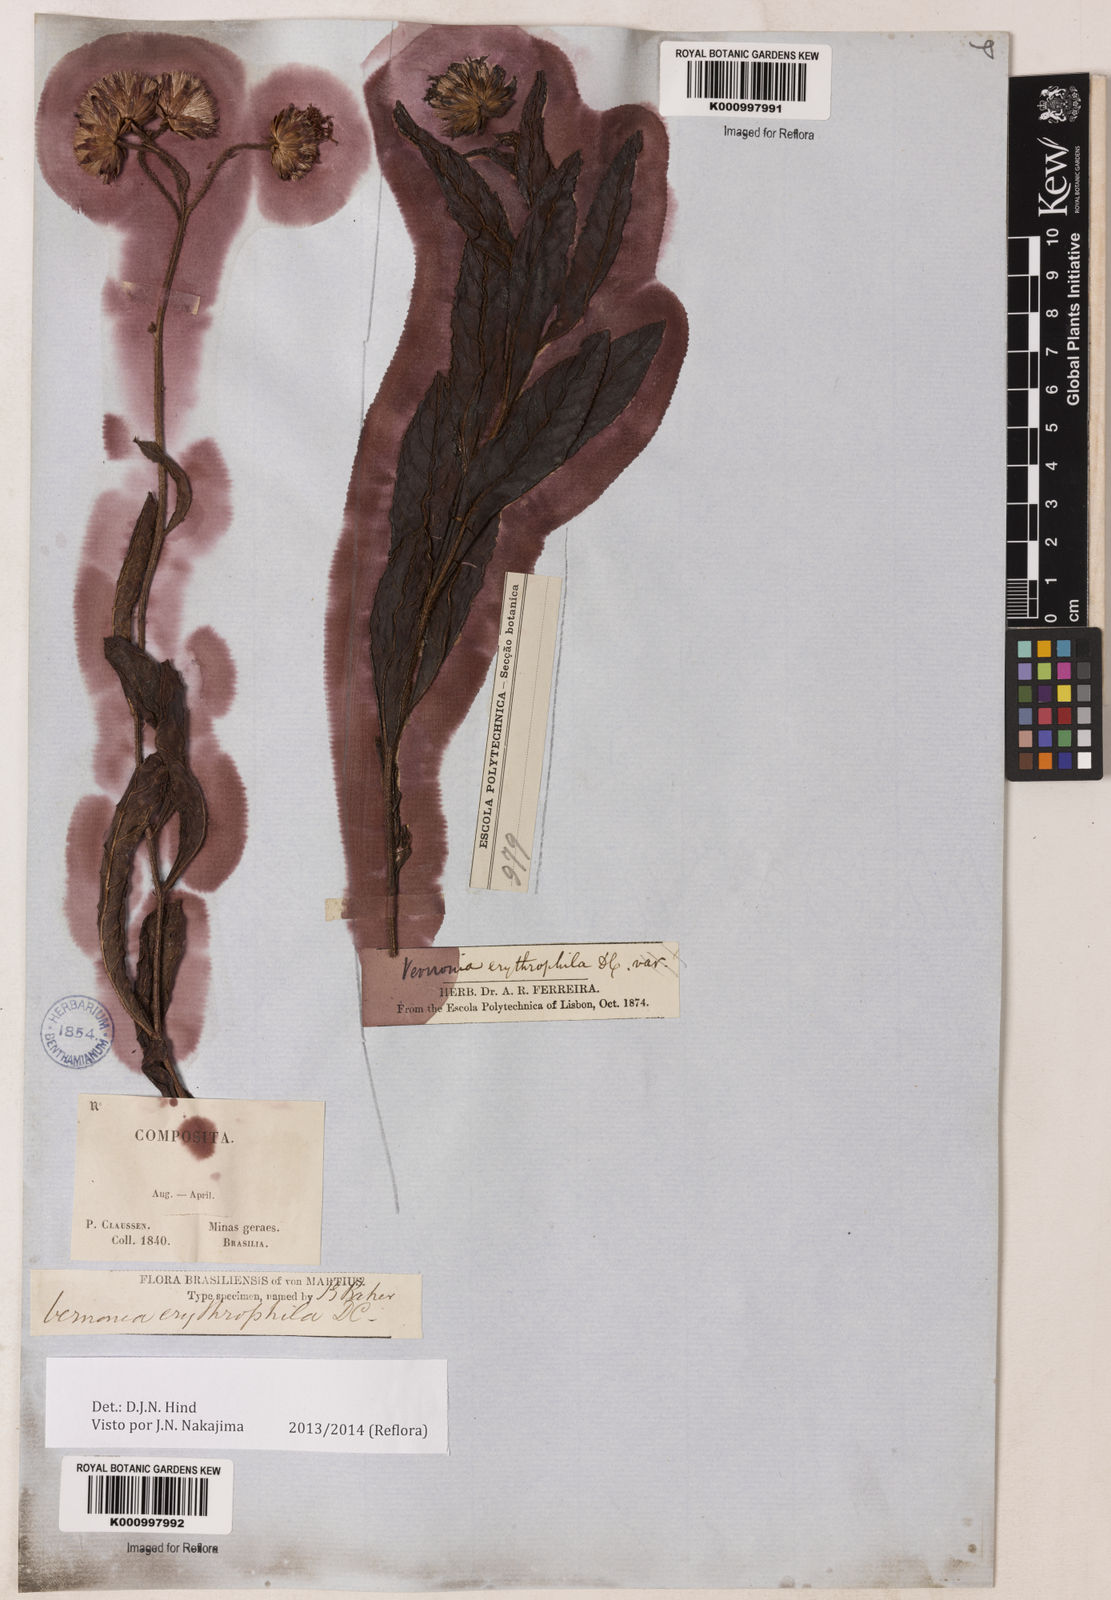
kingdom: Plantae
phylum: Tracheophyta
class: Magnoliopsida
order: Asterales
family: Asteraceae
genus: Lessingianthus
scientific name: Lessingianthus erythrophilus
